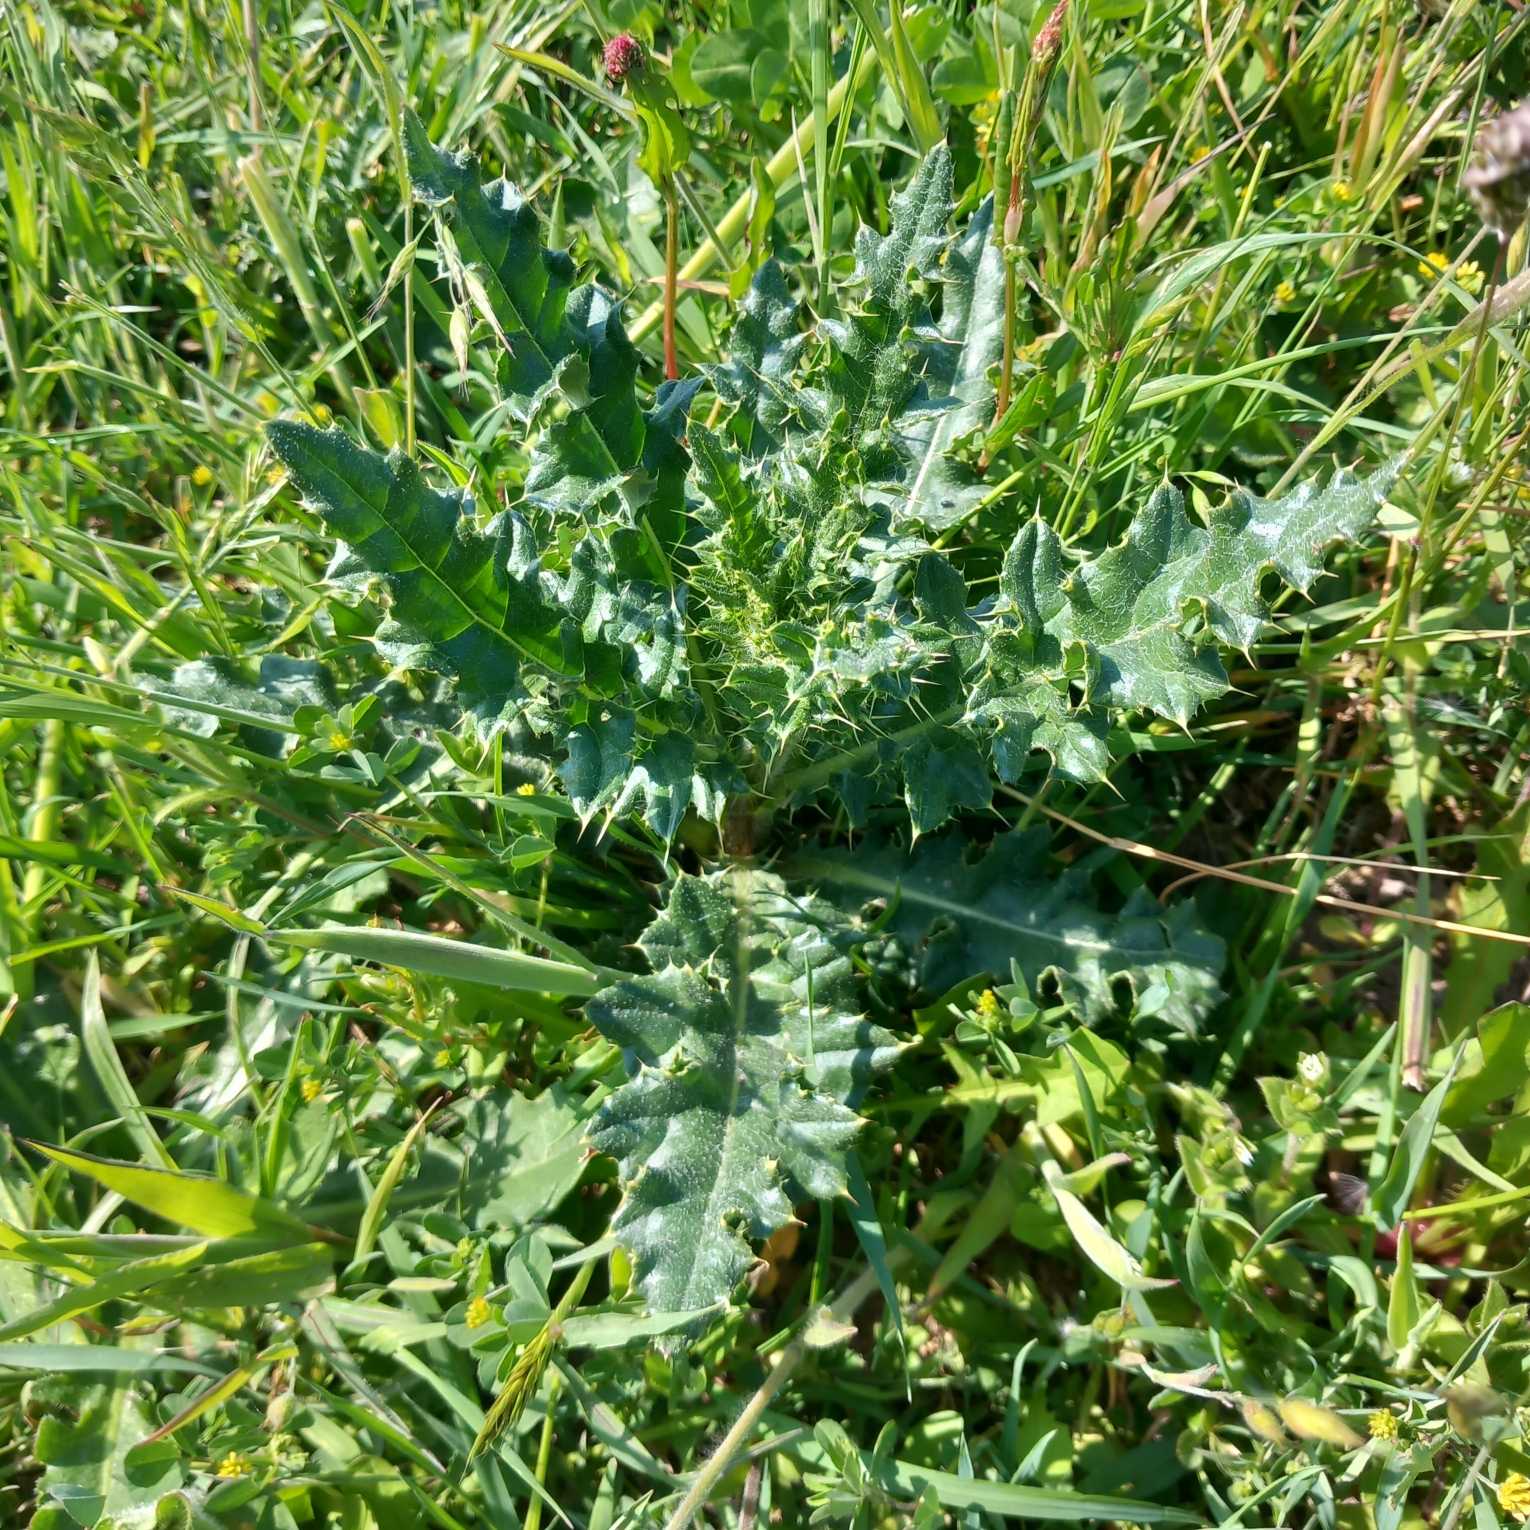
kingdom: Plantae
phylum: Tracheophyta
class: Magnoliopsida
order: Asterales
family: Asteraceae
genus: Cirsium
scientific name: Cirsium arvense
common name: Ager-tidsel
